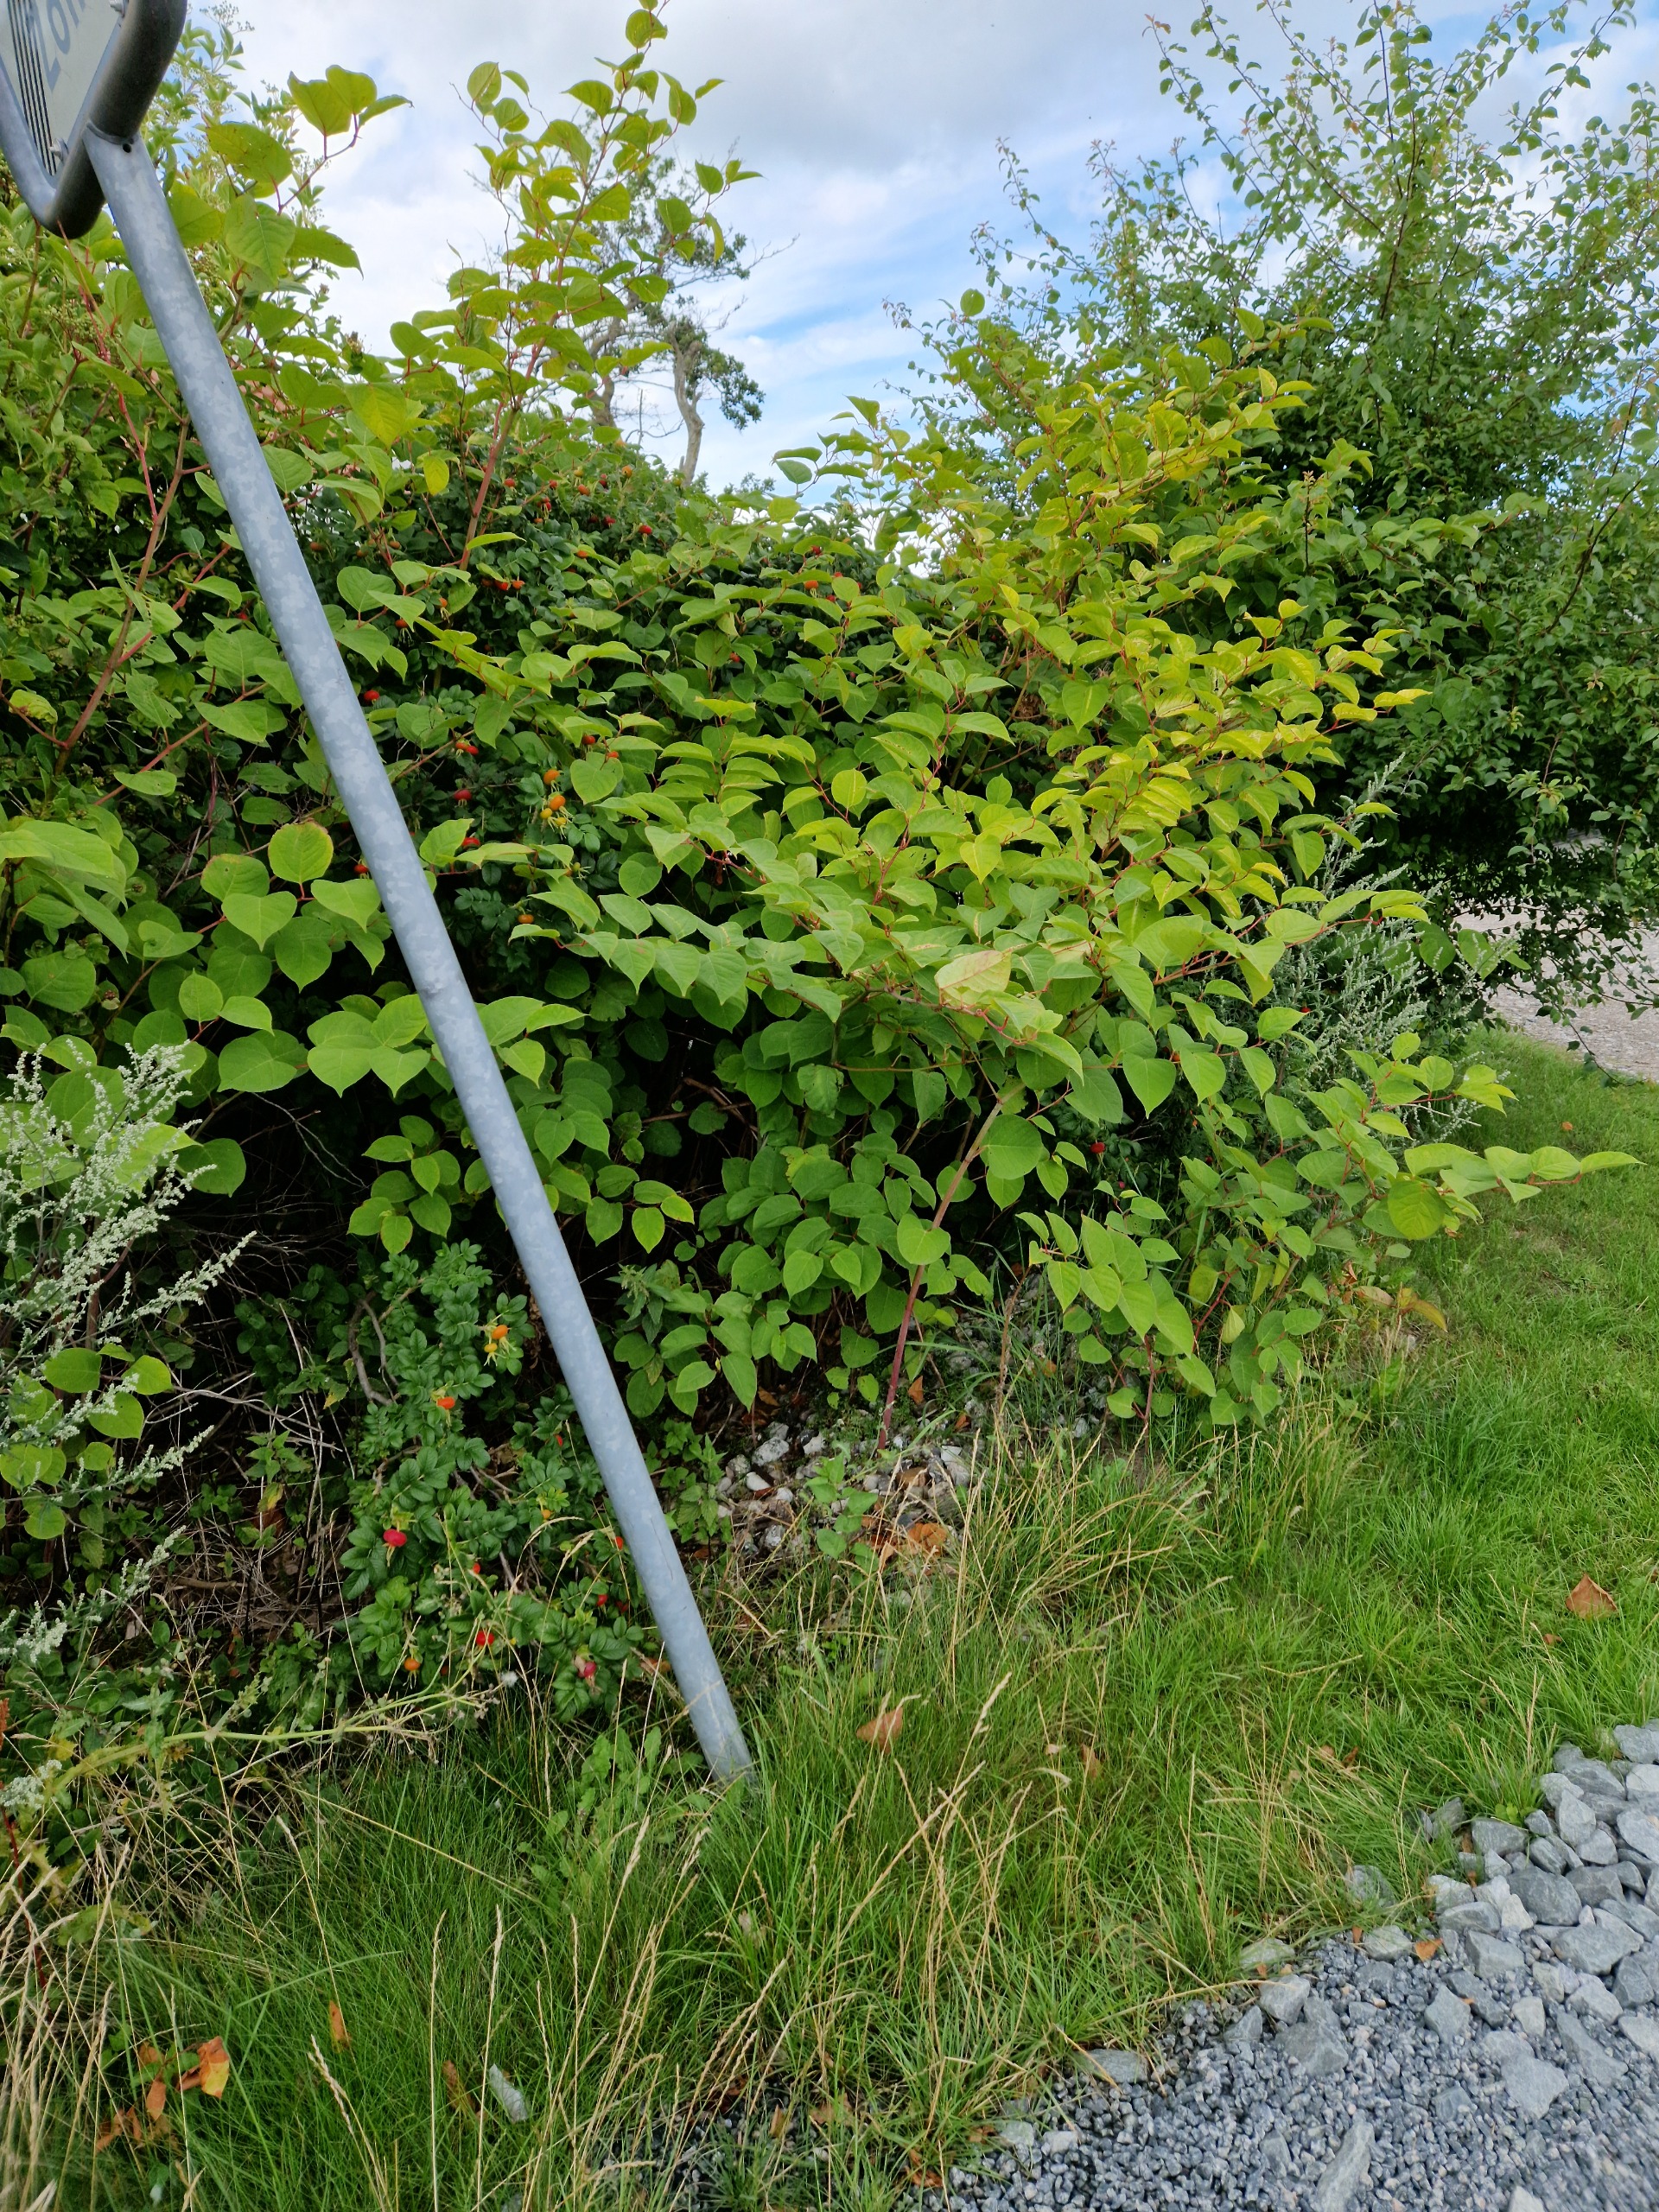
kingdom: Plantae
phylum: Tracheophyta
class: Magnoliopsida
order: Caryophyllales
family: Polygonaceae
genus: Reynoutria
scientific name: Reynoutria japonica
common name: Japan-pileurt
